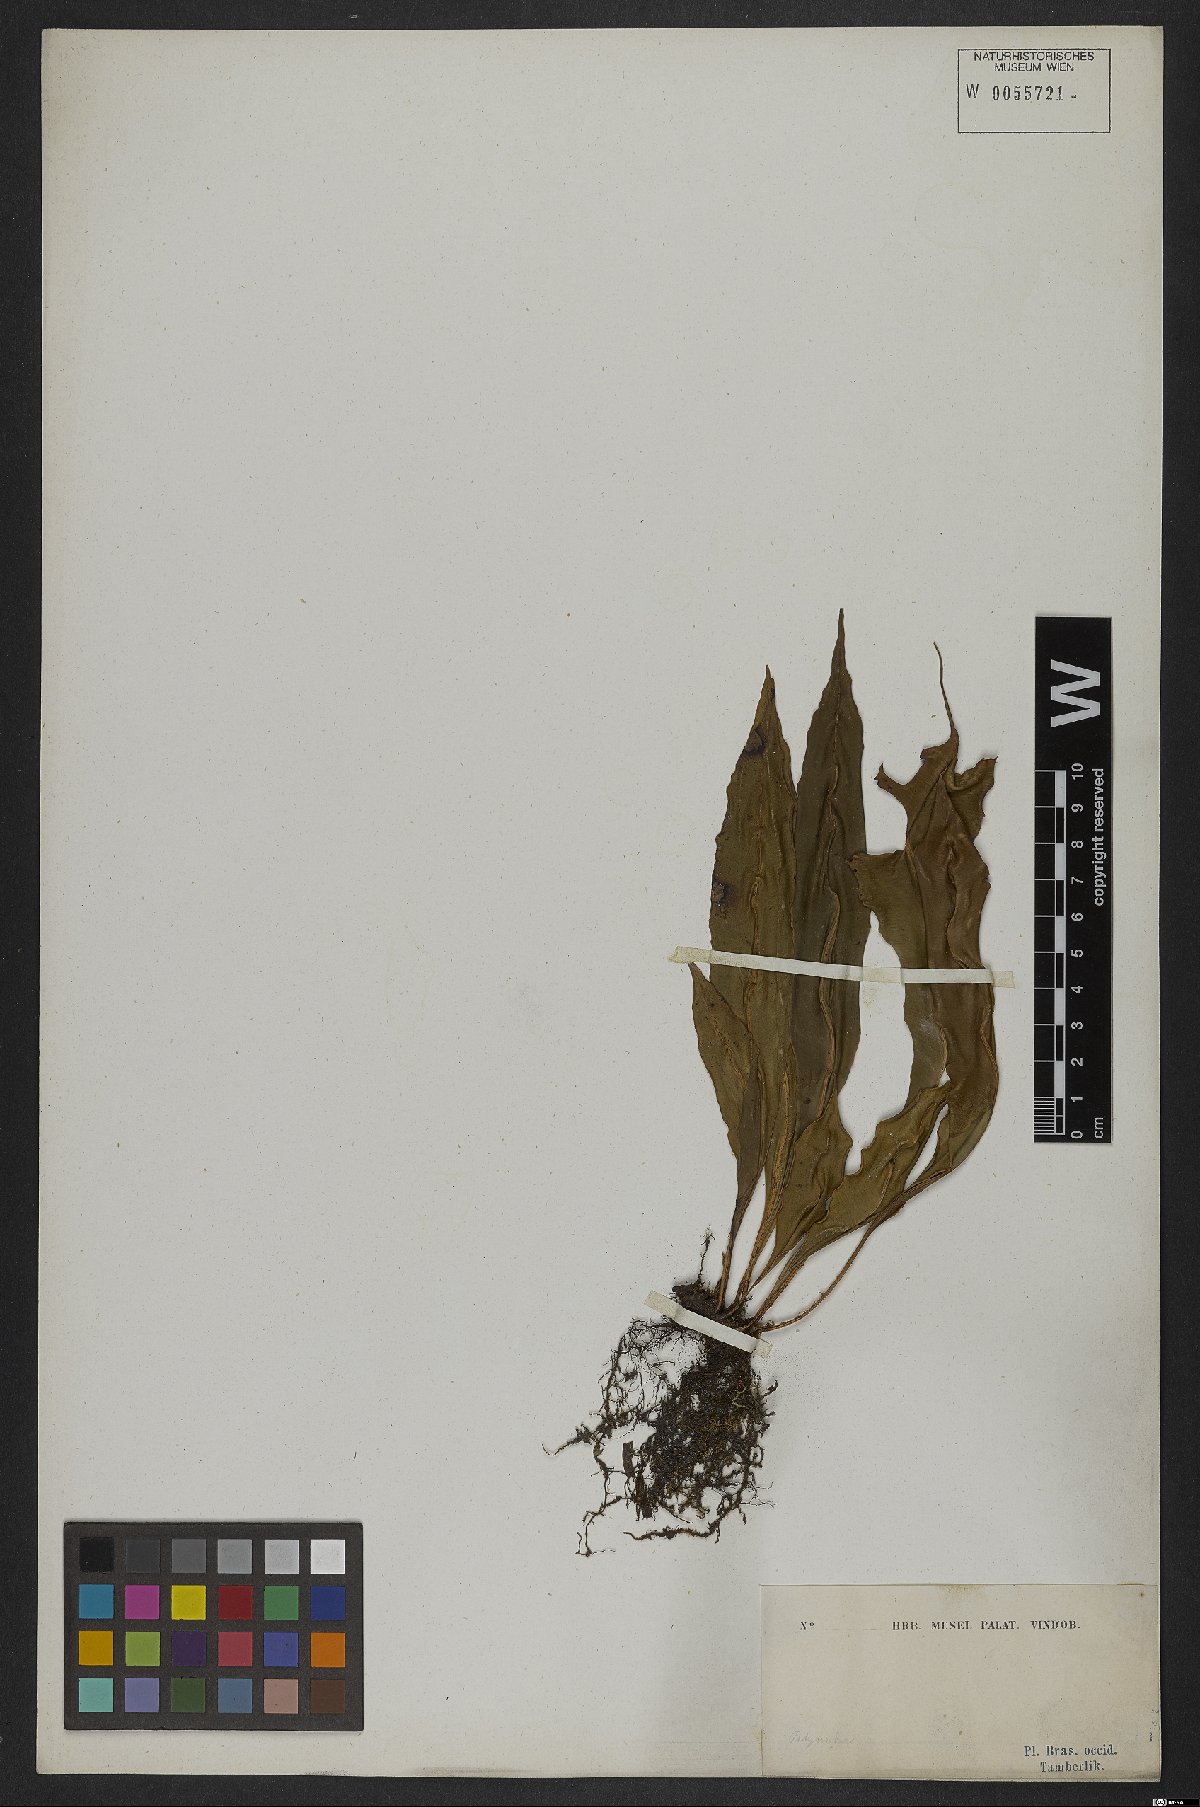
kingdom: Plantae
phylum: Tracheophyta
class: Polypodiopsida
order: Polypodiales
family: Dryopteridaceae
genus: Elaphoglossum
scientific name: Elaphoglossum
